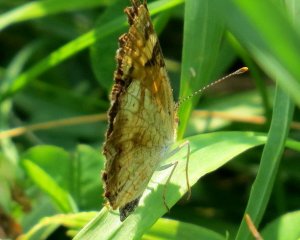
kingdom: Animalia
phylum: Arthropoda
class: Insecta
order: Lepidoptera
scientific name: Lepidoptera
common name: Butterflies
